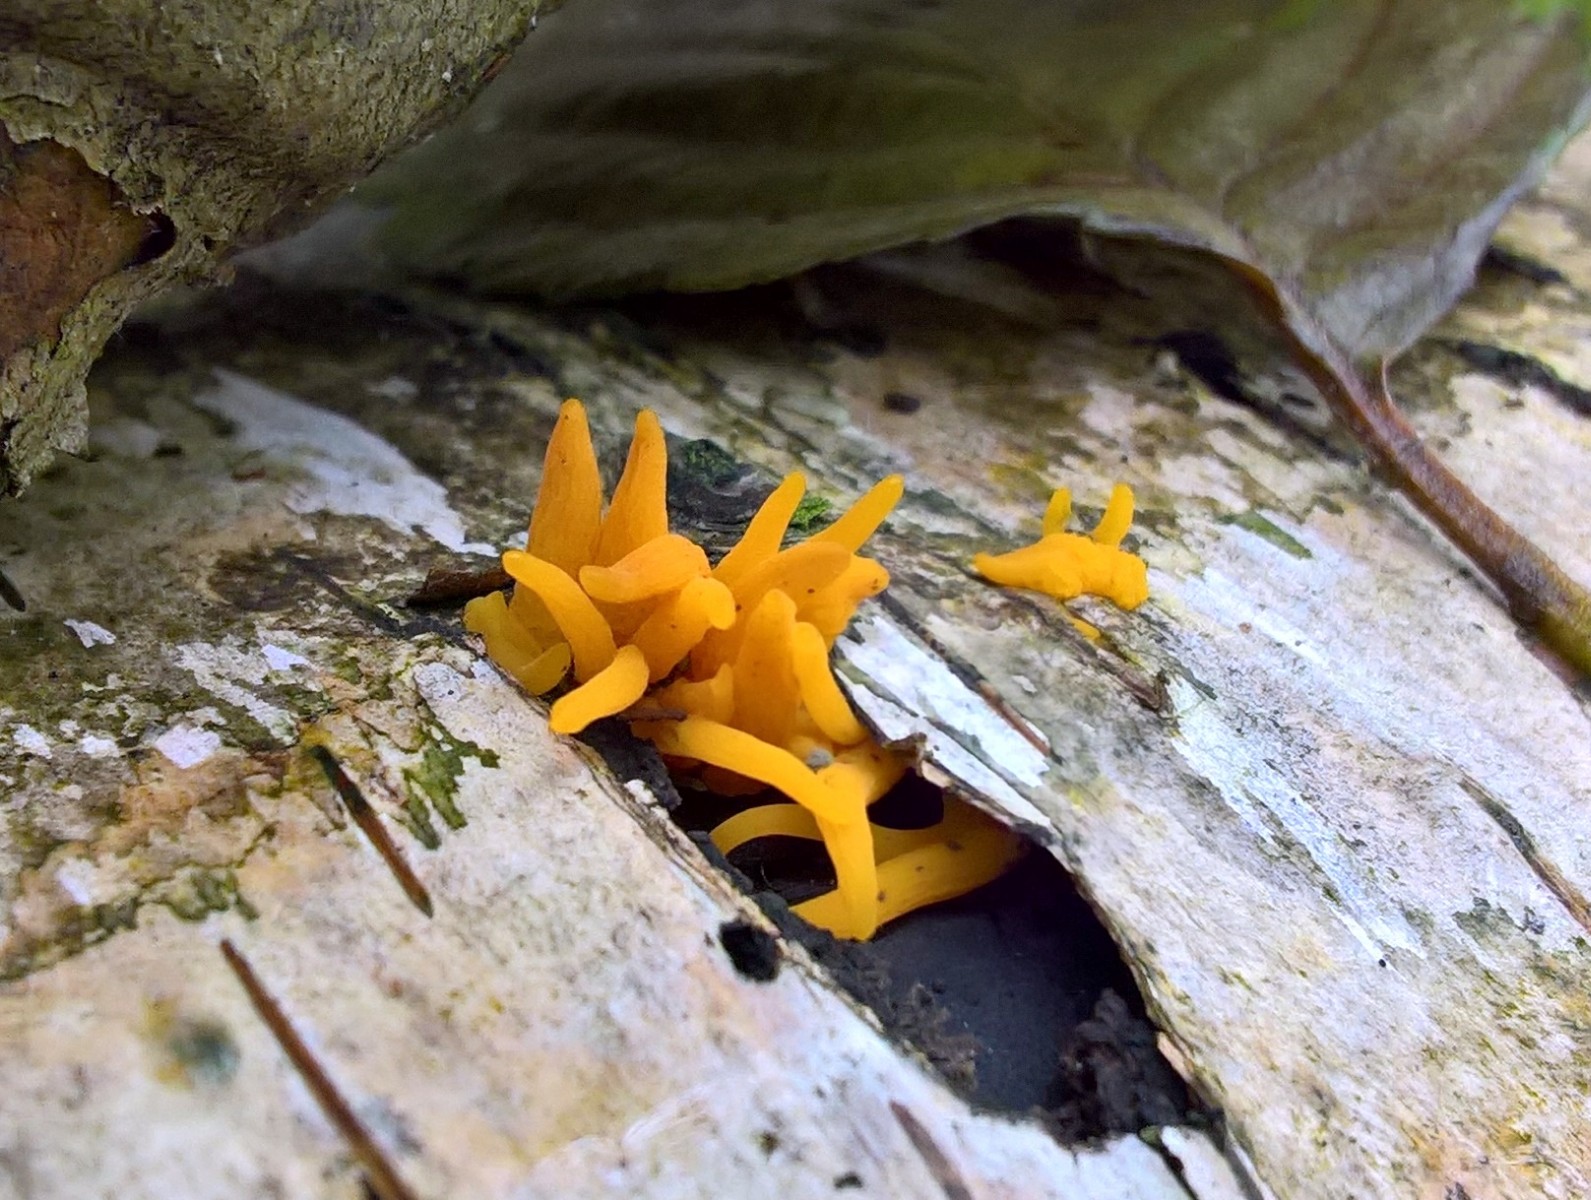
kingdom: Fungi
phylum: Basidiomycota
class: Dacrymycetes
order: Dacrymycetales
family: Dacrymycetaceae
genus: Calocera
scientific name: Calocera cornea
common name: liden guldgaffel
